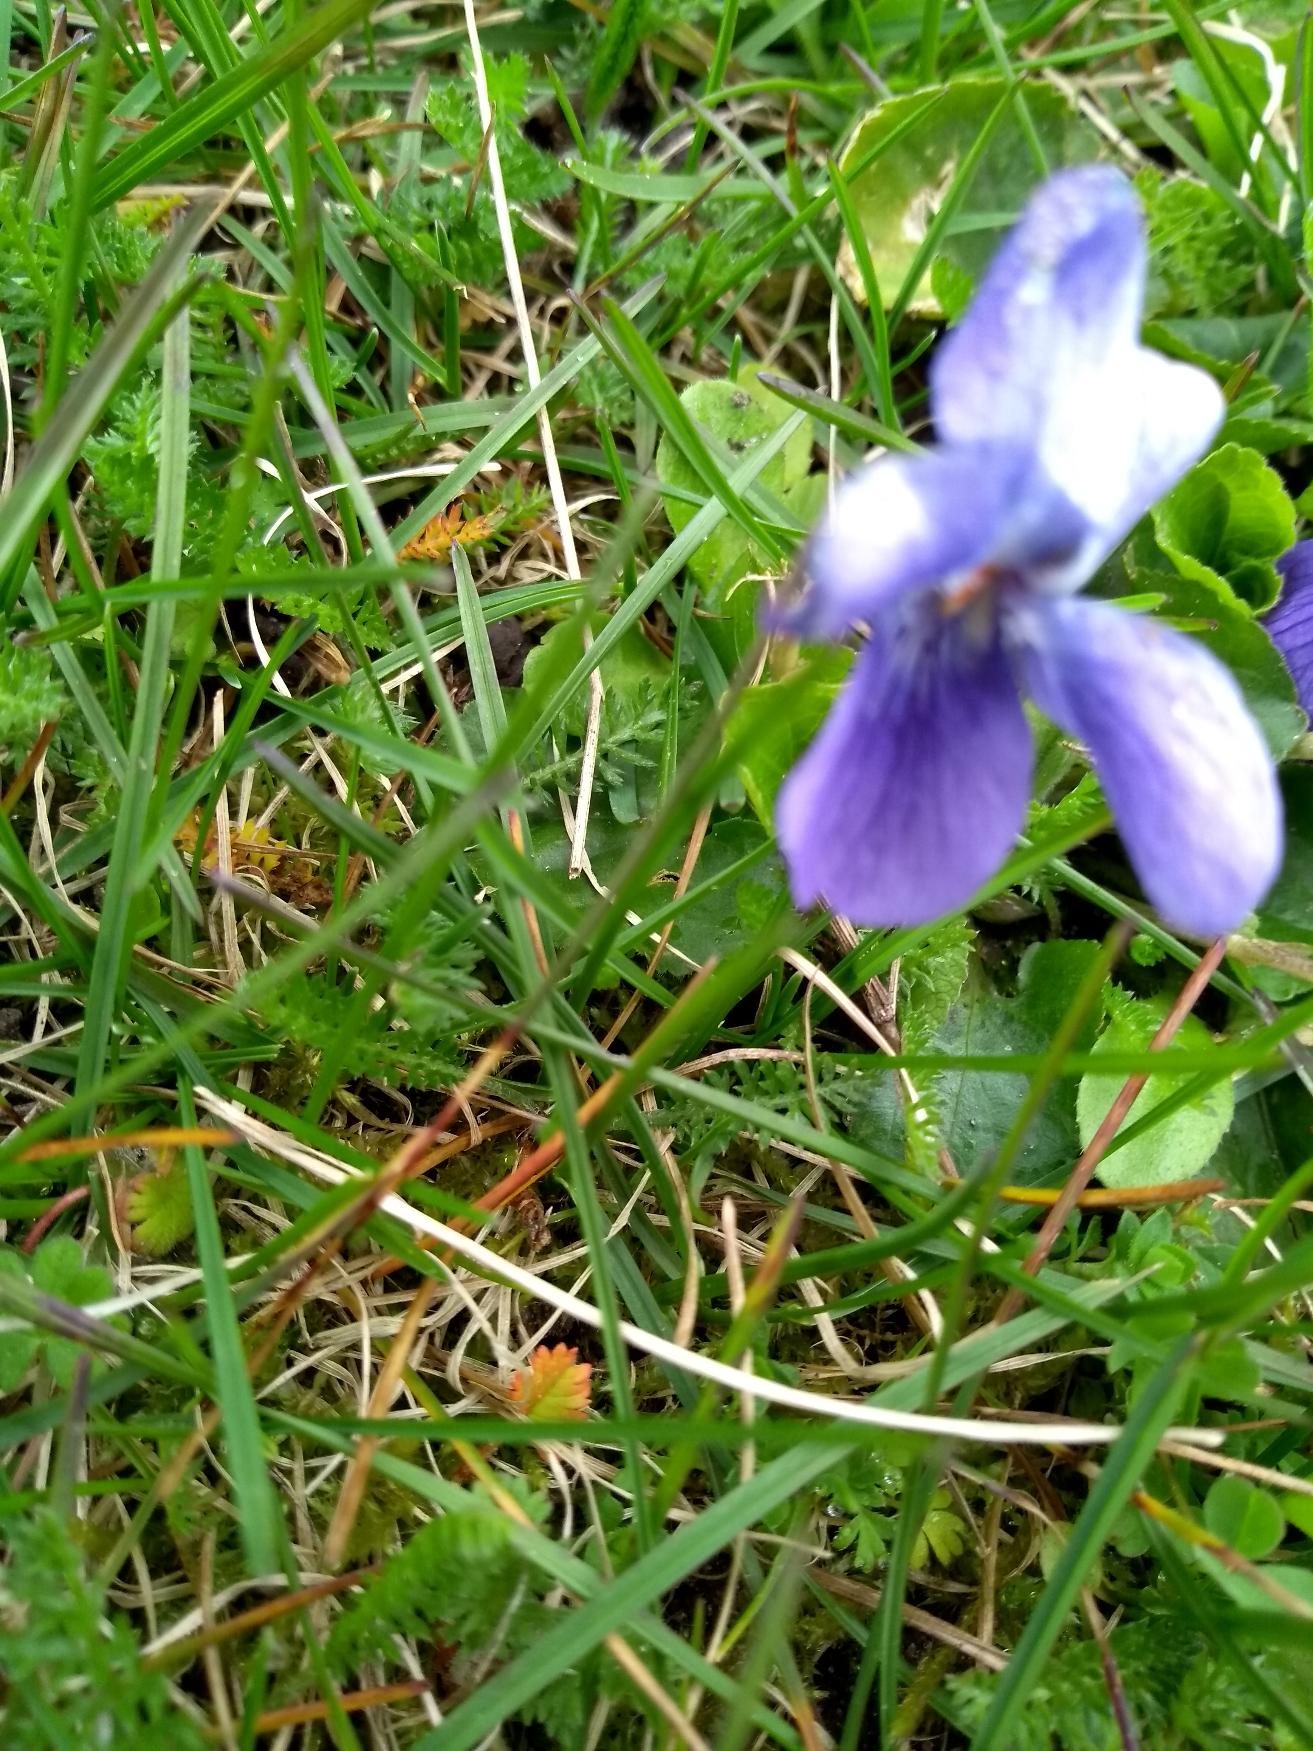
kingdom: Plantae
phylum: Tracheophyta
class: Magnoliopsida
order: Malpighiales
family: Violaceae
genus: Viola
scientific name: Viola odorata
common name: Marts-viol
